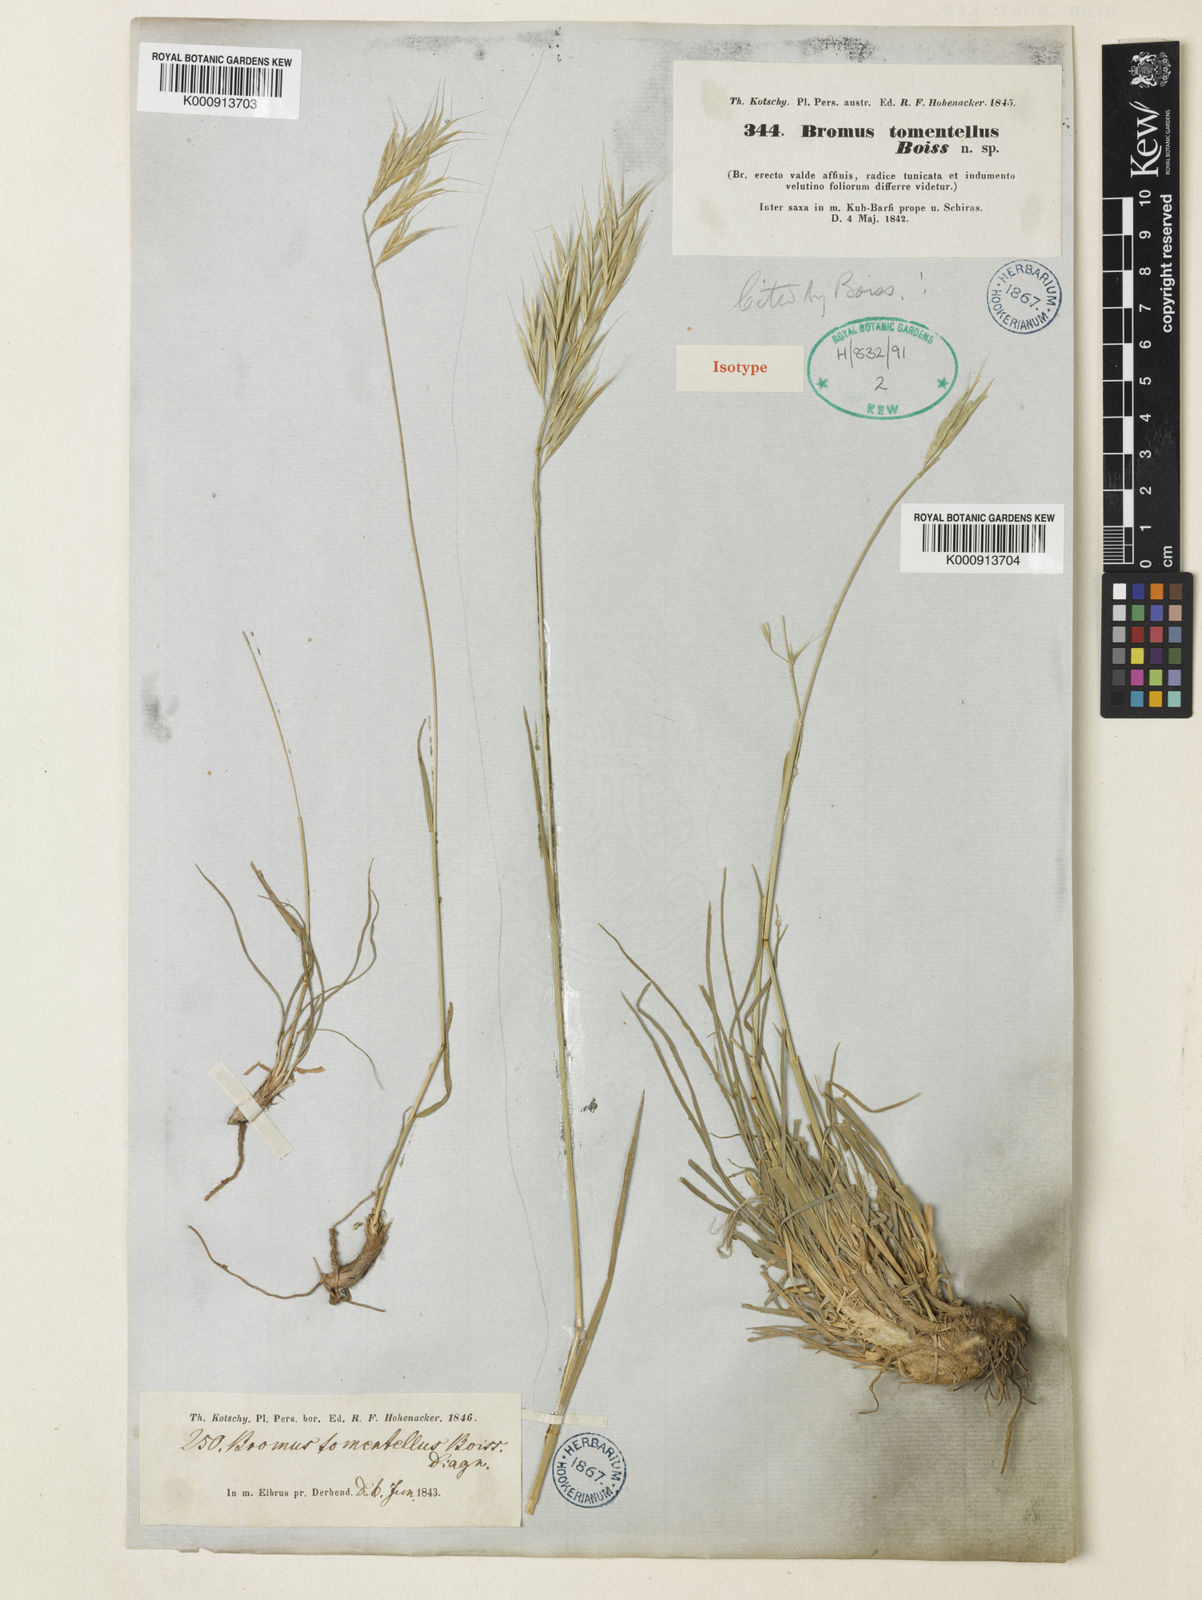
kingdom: Plantae
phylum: Tracheophyta
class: Liliopsida
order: Poales
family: Poaceae
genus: Bromus
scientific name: Bromus tomentellus
